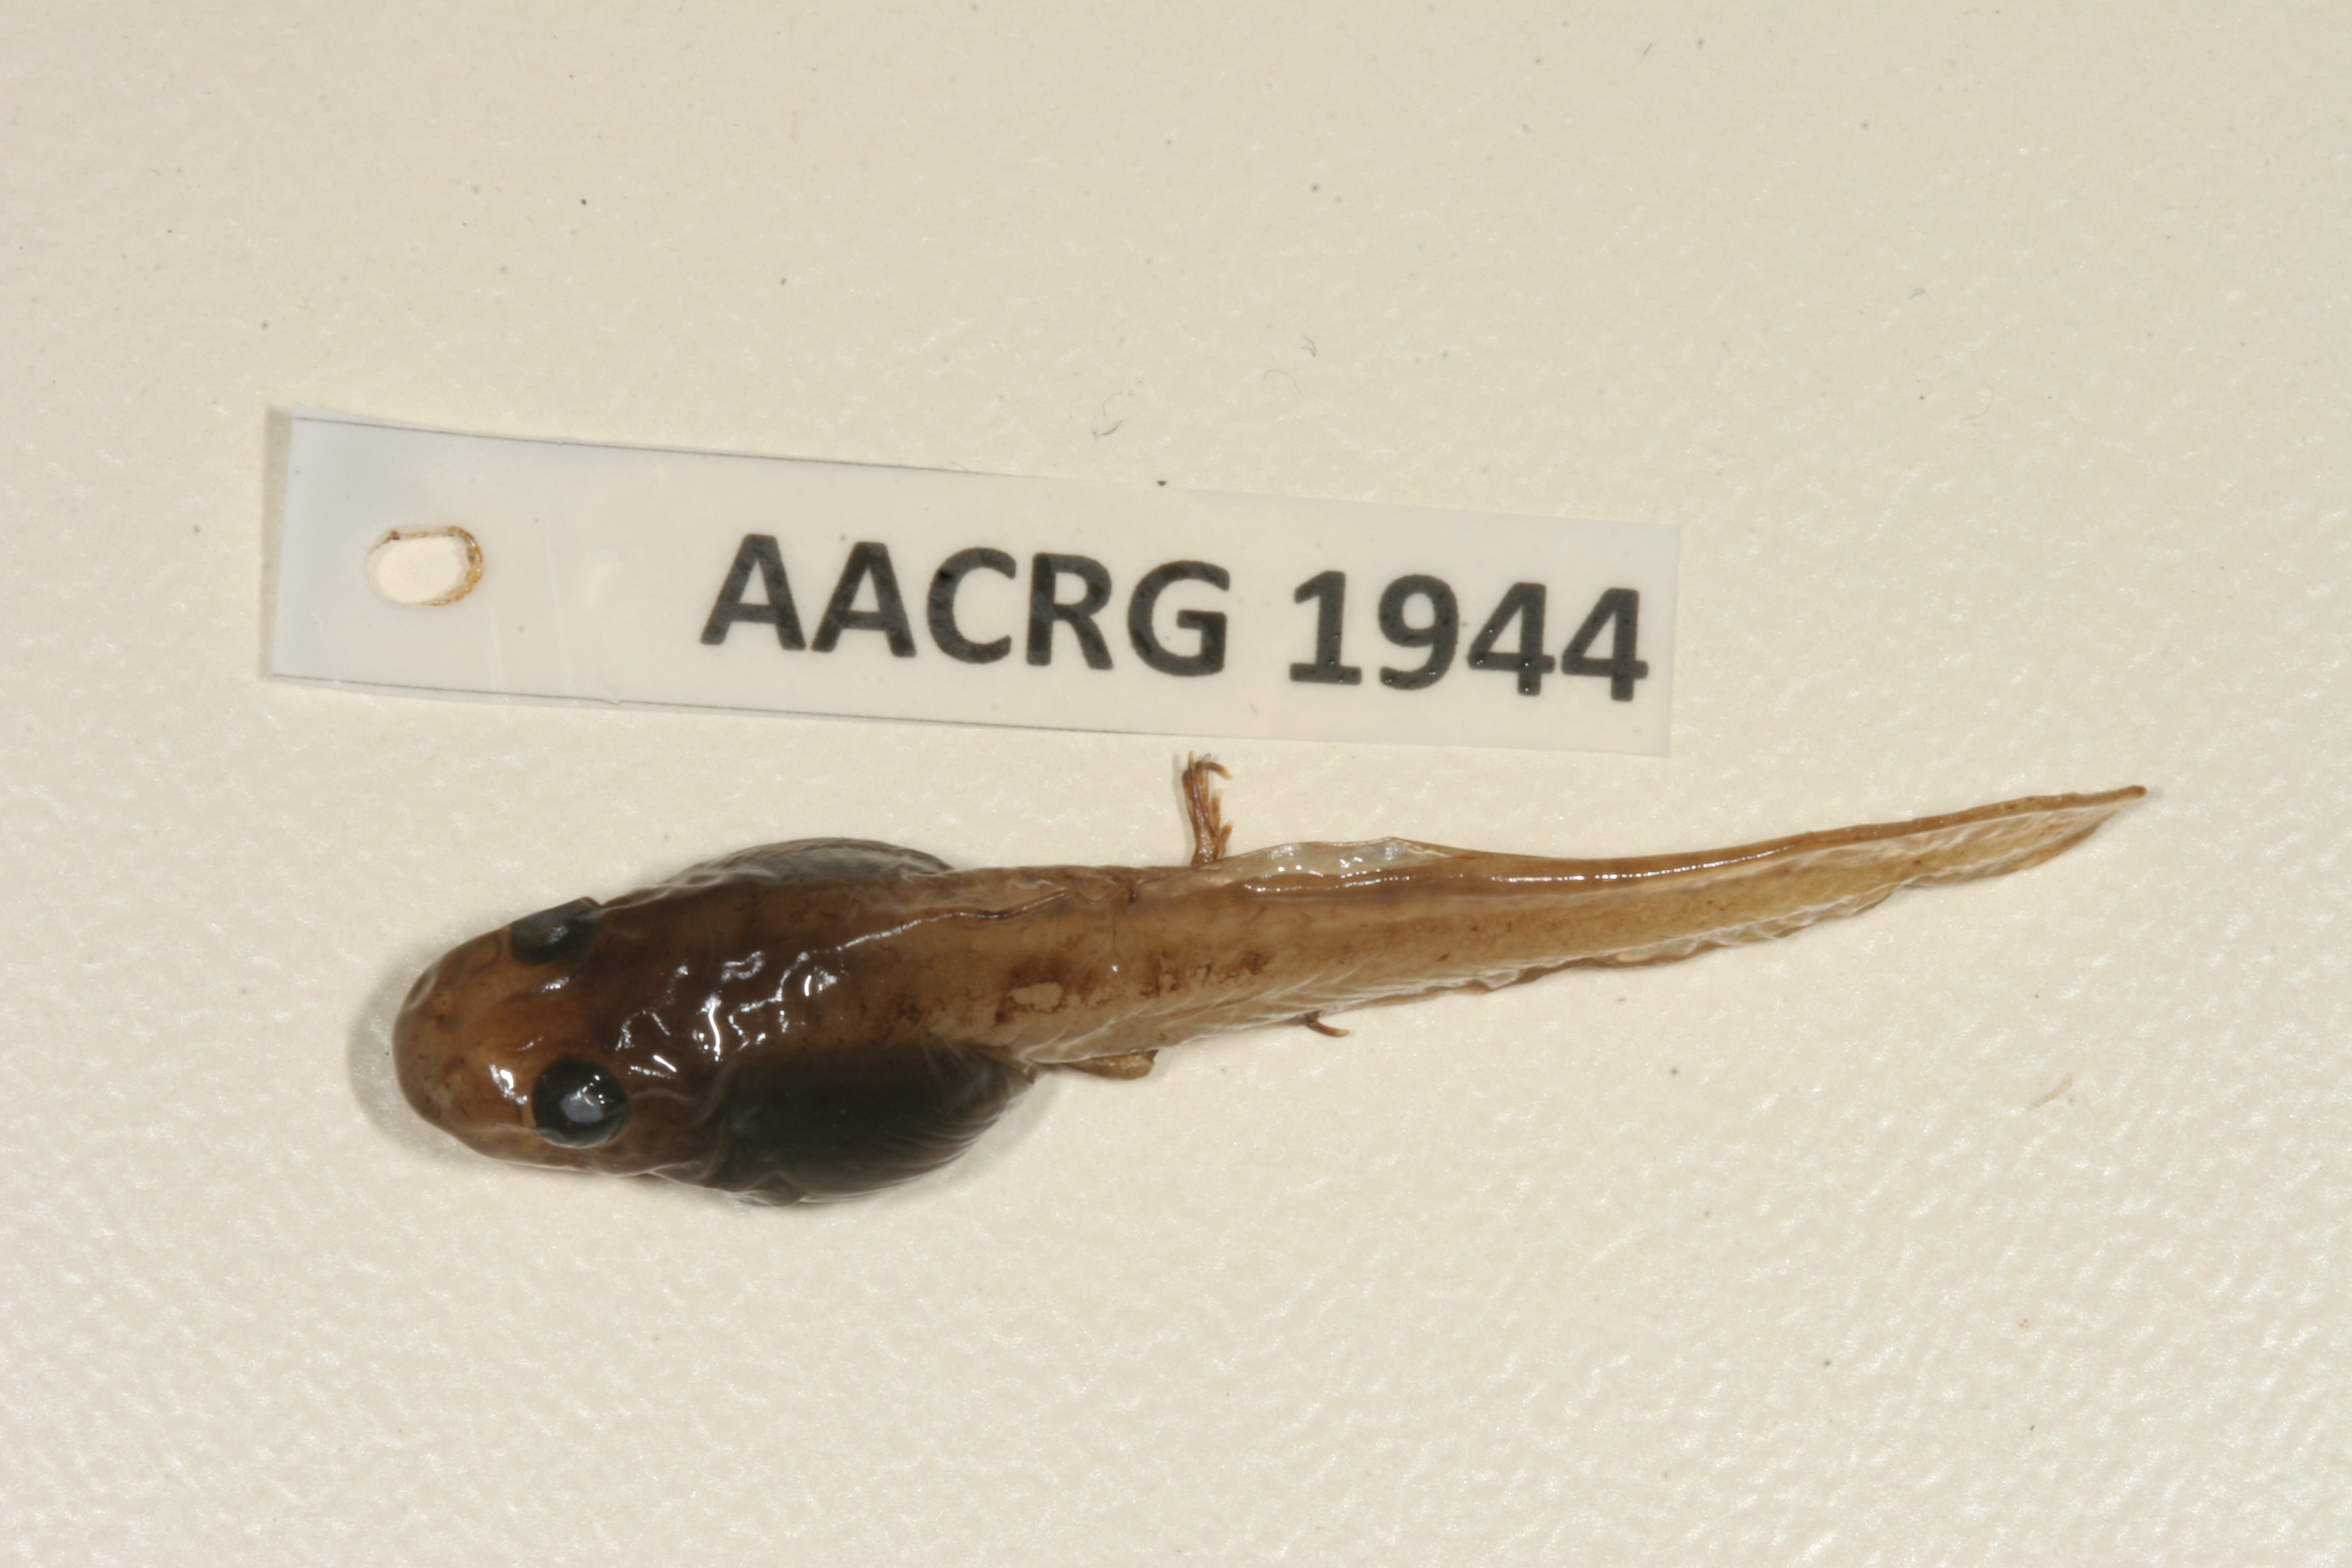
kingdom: Animalia
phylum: Chordata
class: Amphibia
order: Anura
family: Ptychadenidae
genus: Ptychadena
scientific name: Ptychadena anchietae
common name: Anchieta's ridged frog
